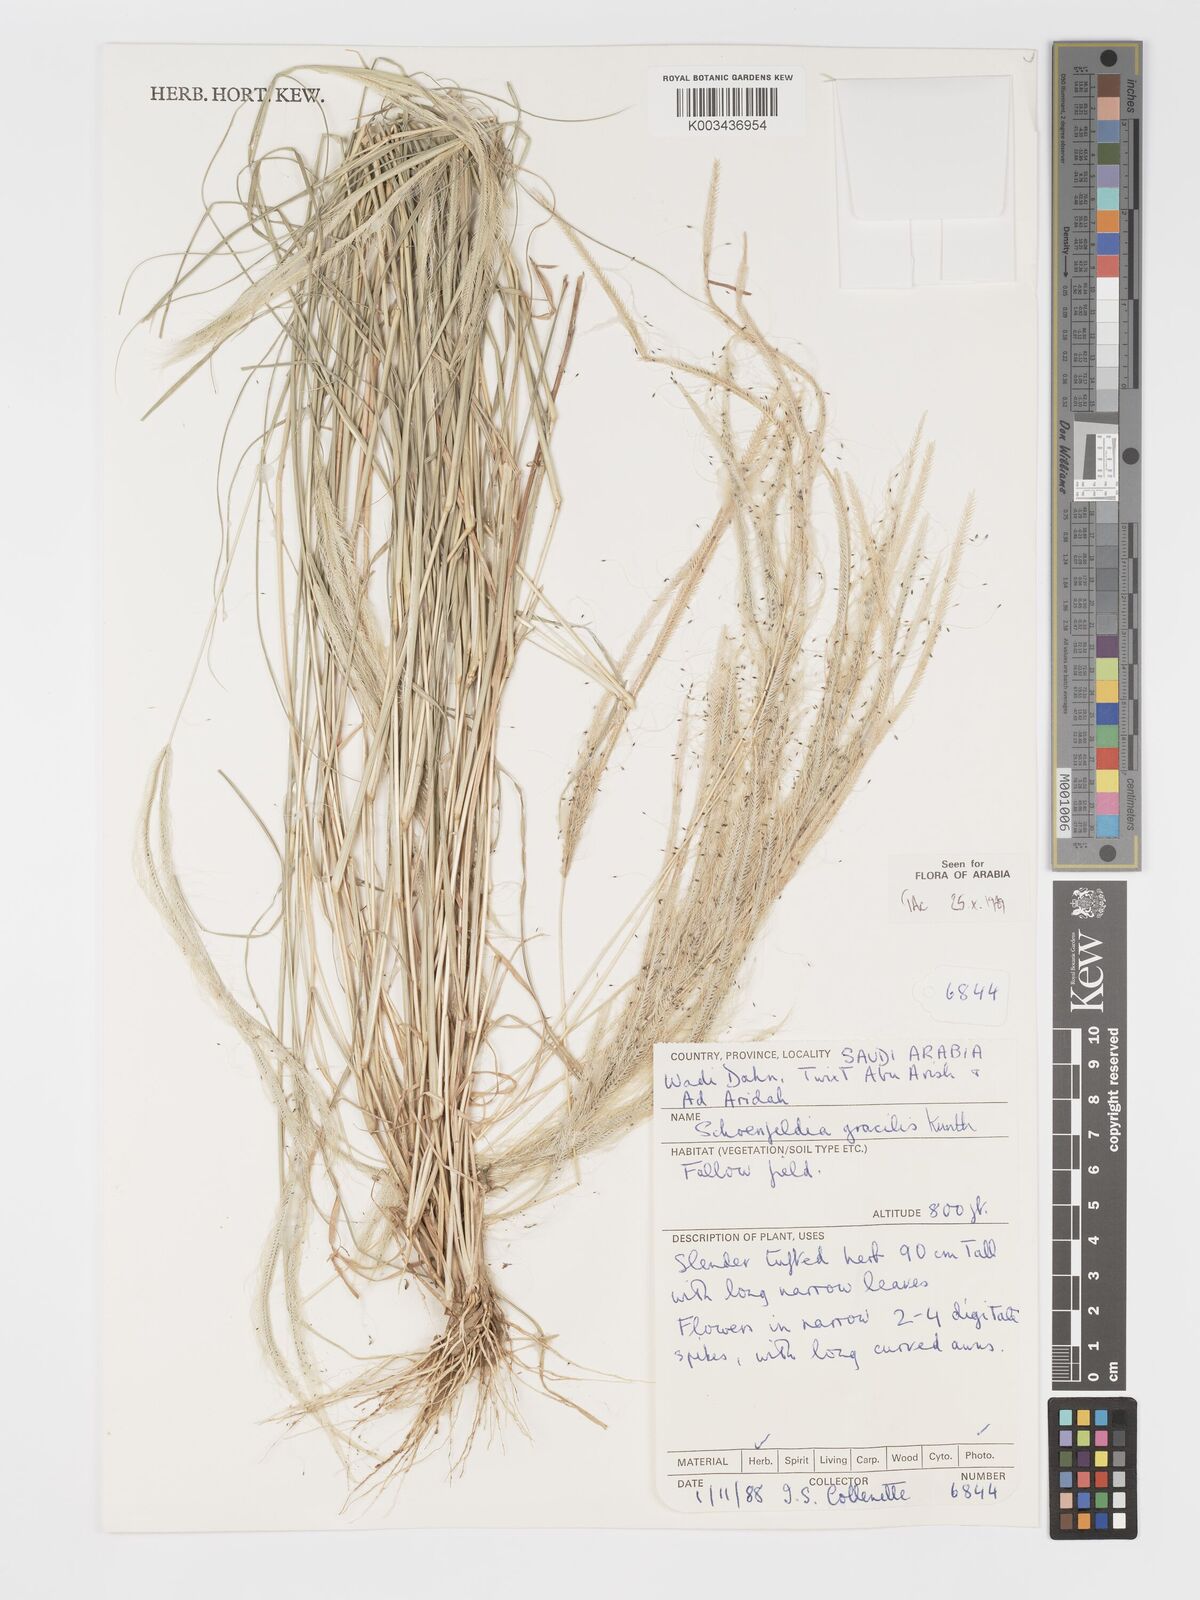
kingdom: Plantae
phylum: Tracheophyta
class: Liliopsida
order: Poales
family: Poaceae
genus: Schoenefeldia
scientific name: Schoenefeldia gracilis
